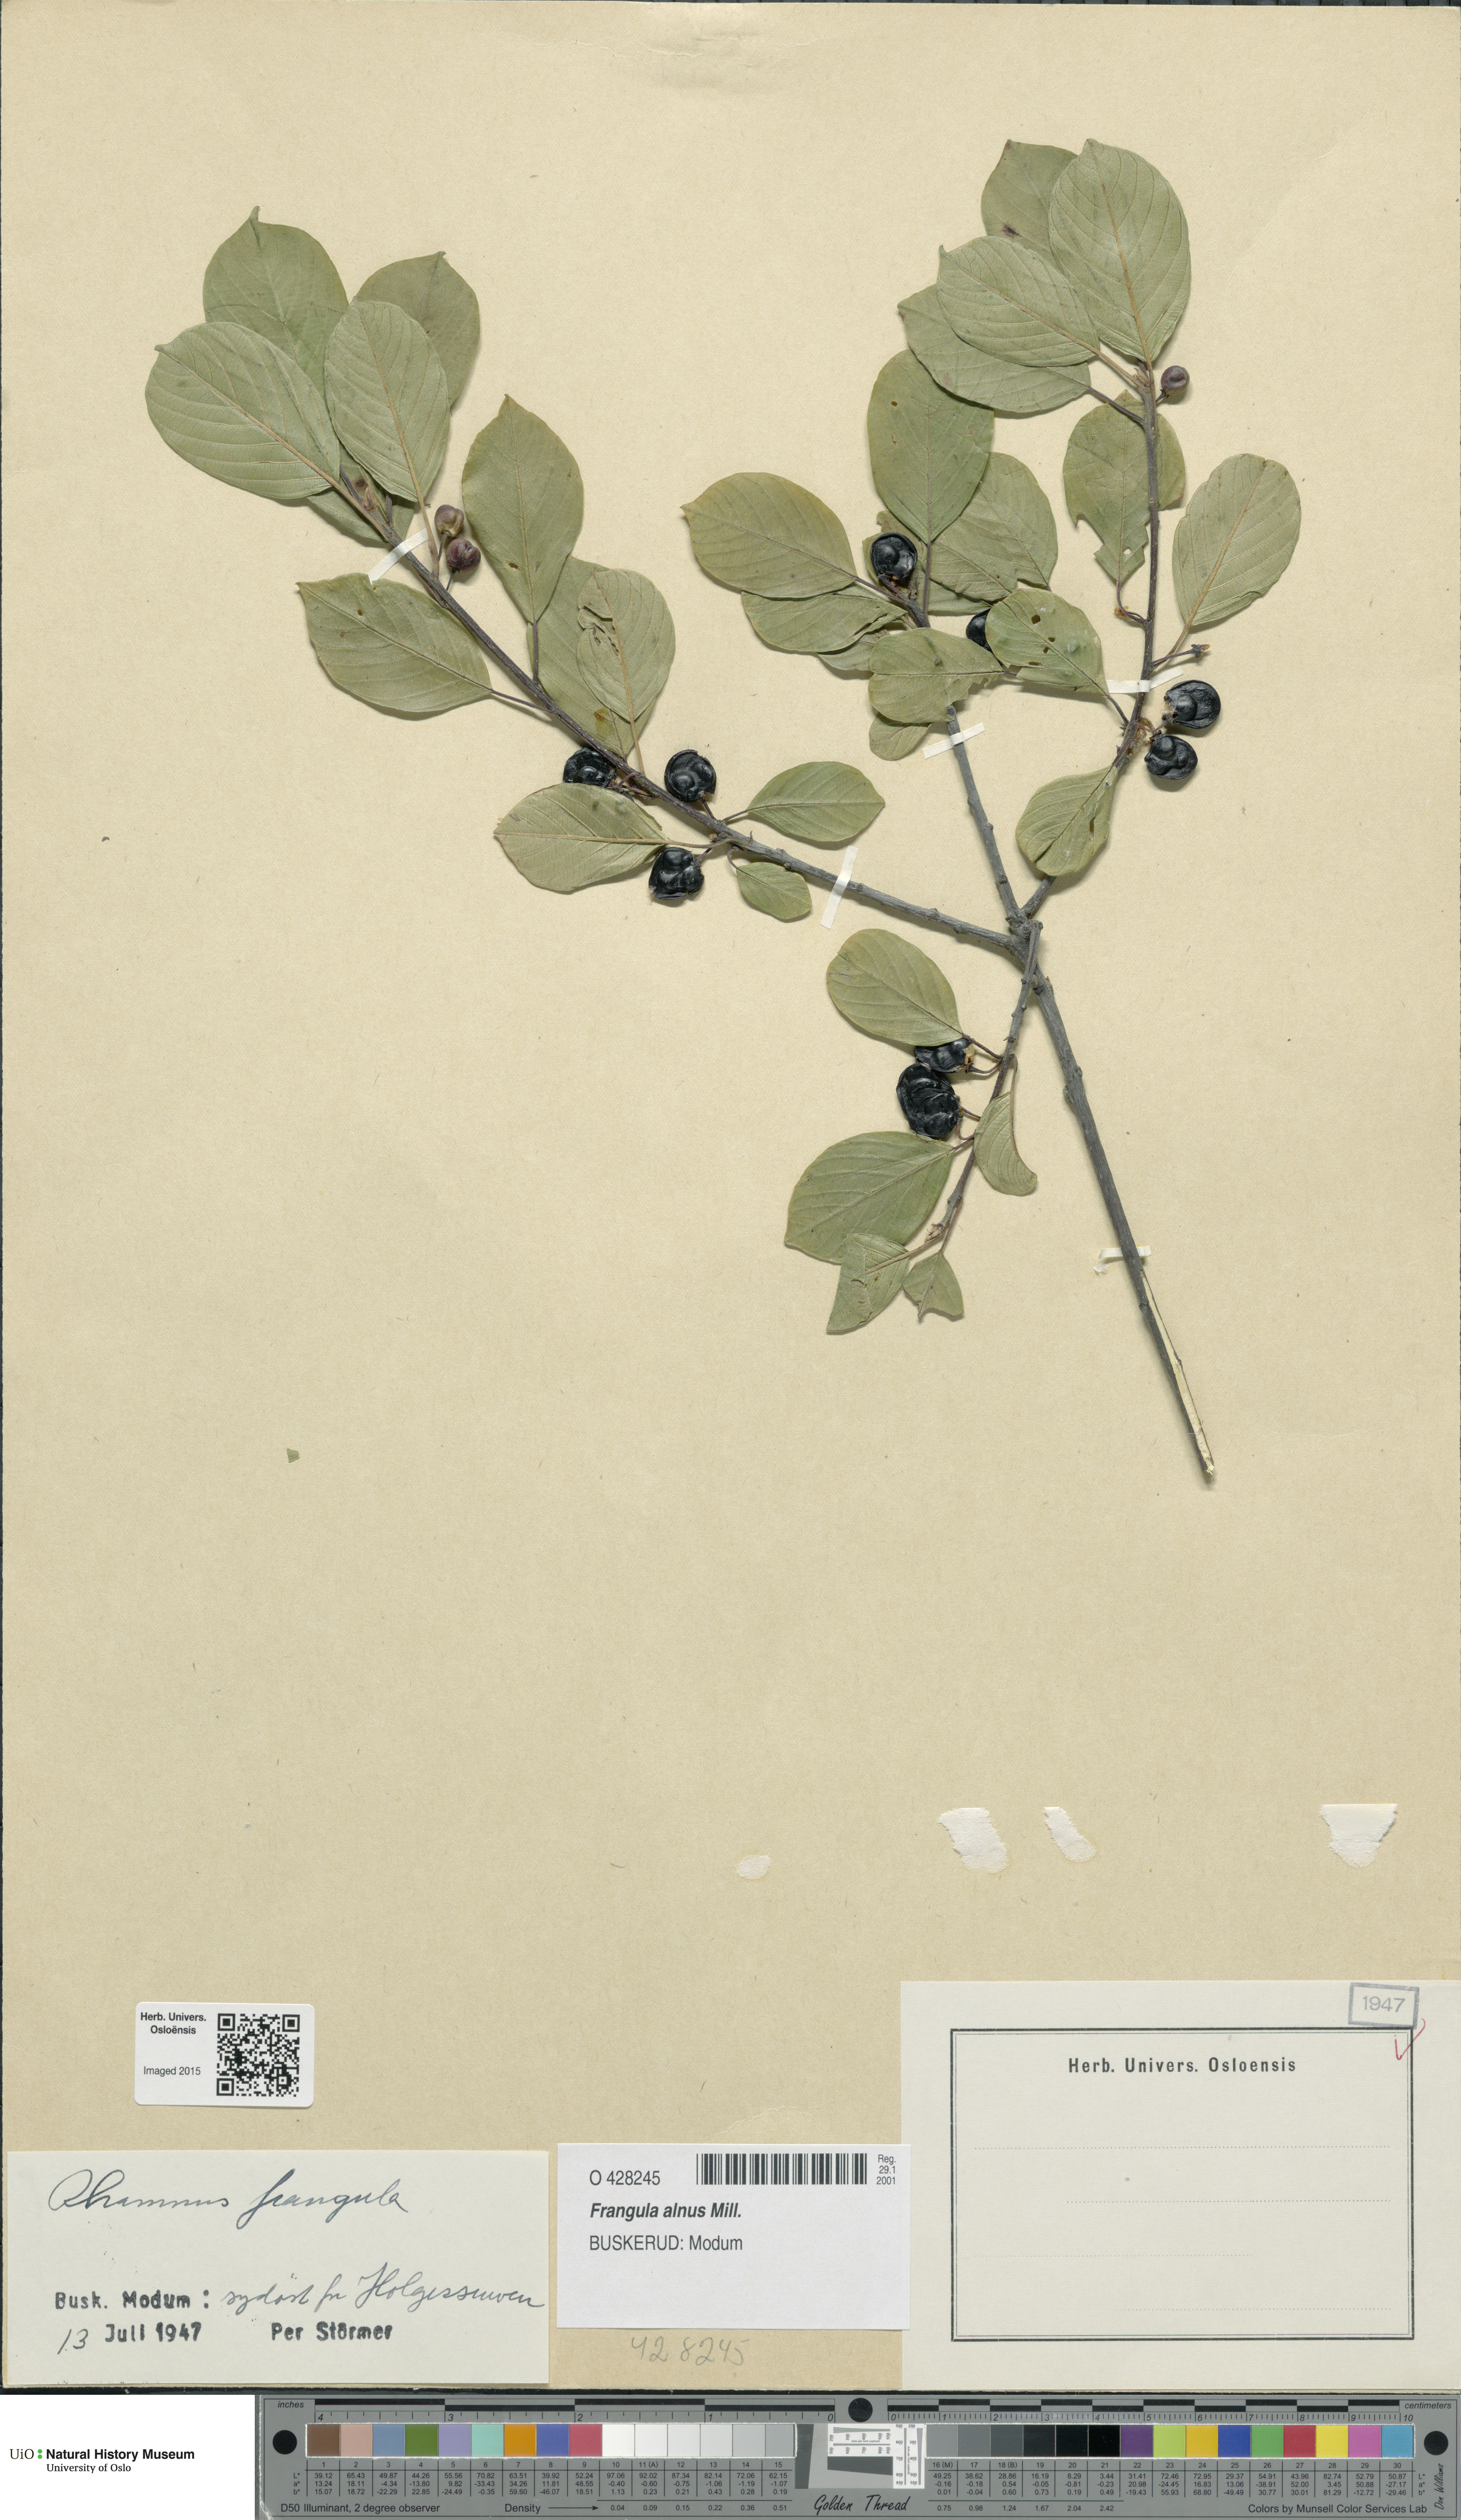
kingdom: Plantae
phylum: Tracheophyta
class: Magnoliopsida
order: Rosales
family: Rhamnaceae
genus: Frangula
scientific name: Frangula alnus
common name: Alder buckthorn
